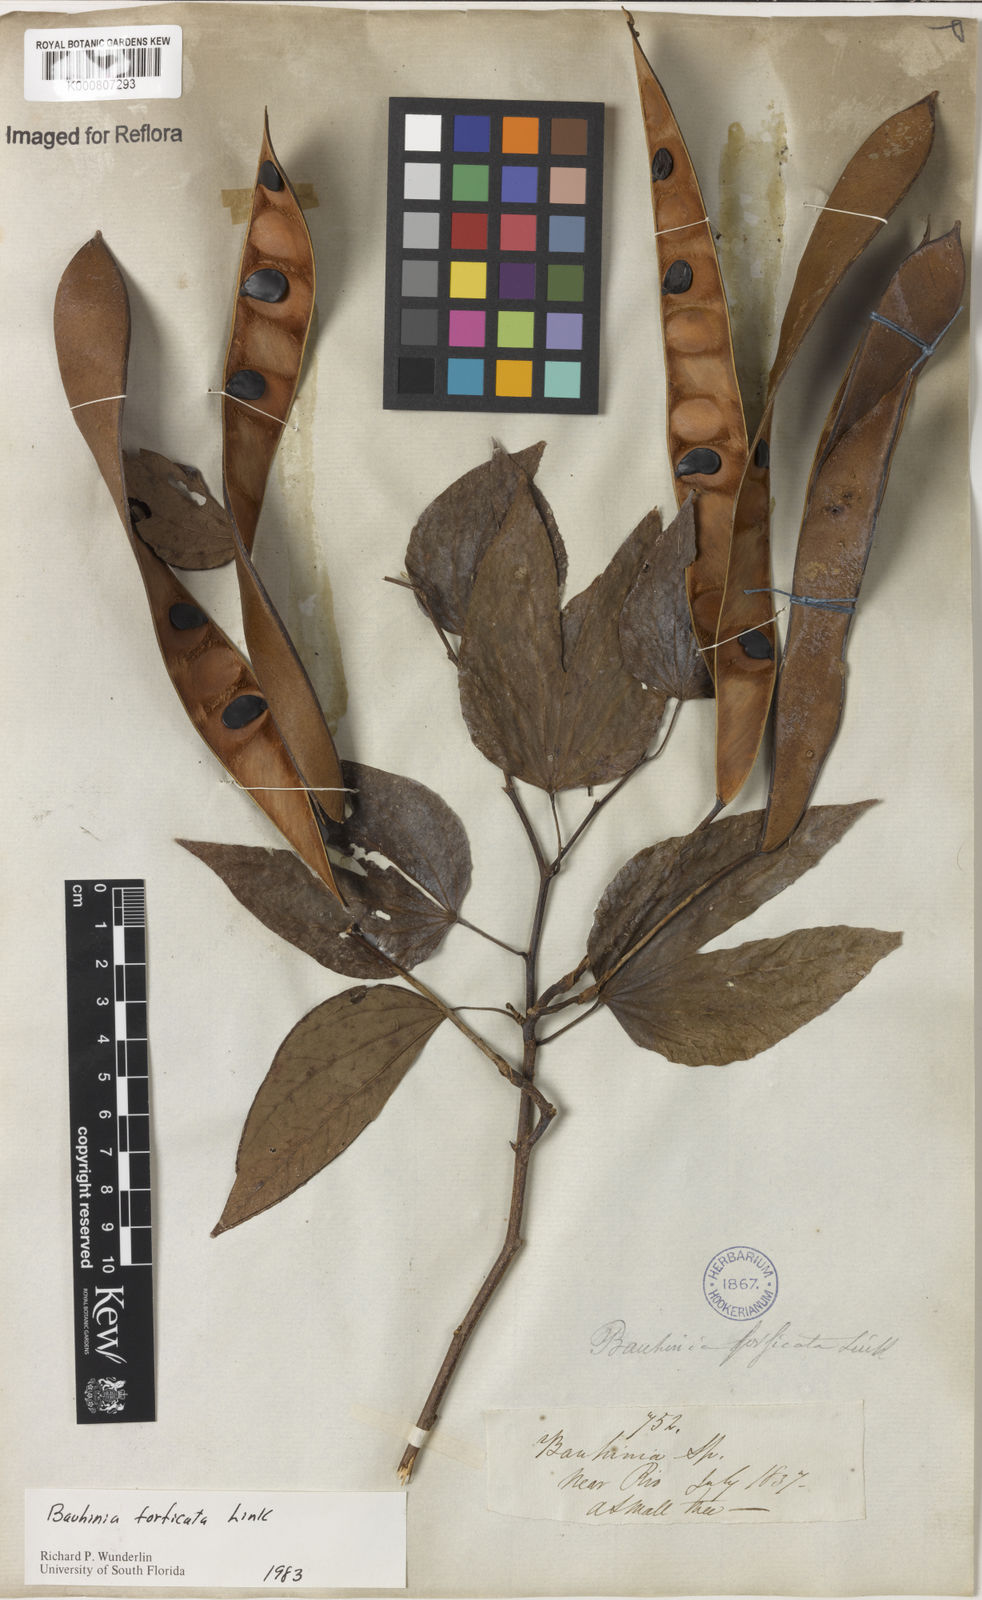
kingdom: Plantae
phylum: Tracheophyta
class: Magnoliopsida
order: Fabales
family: Fabaceae
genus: Bauhinia
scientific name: Bauhinia forficata
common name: Orchid tree
